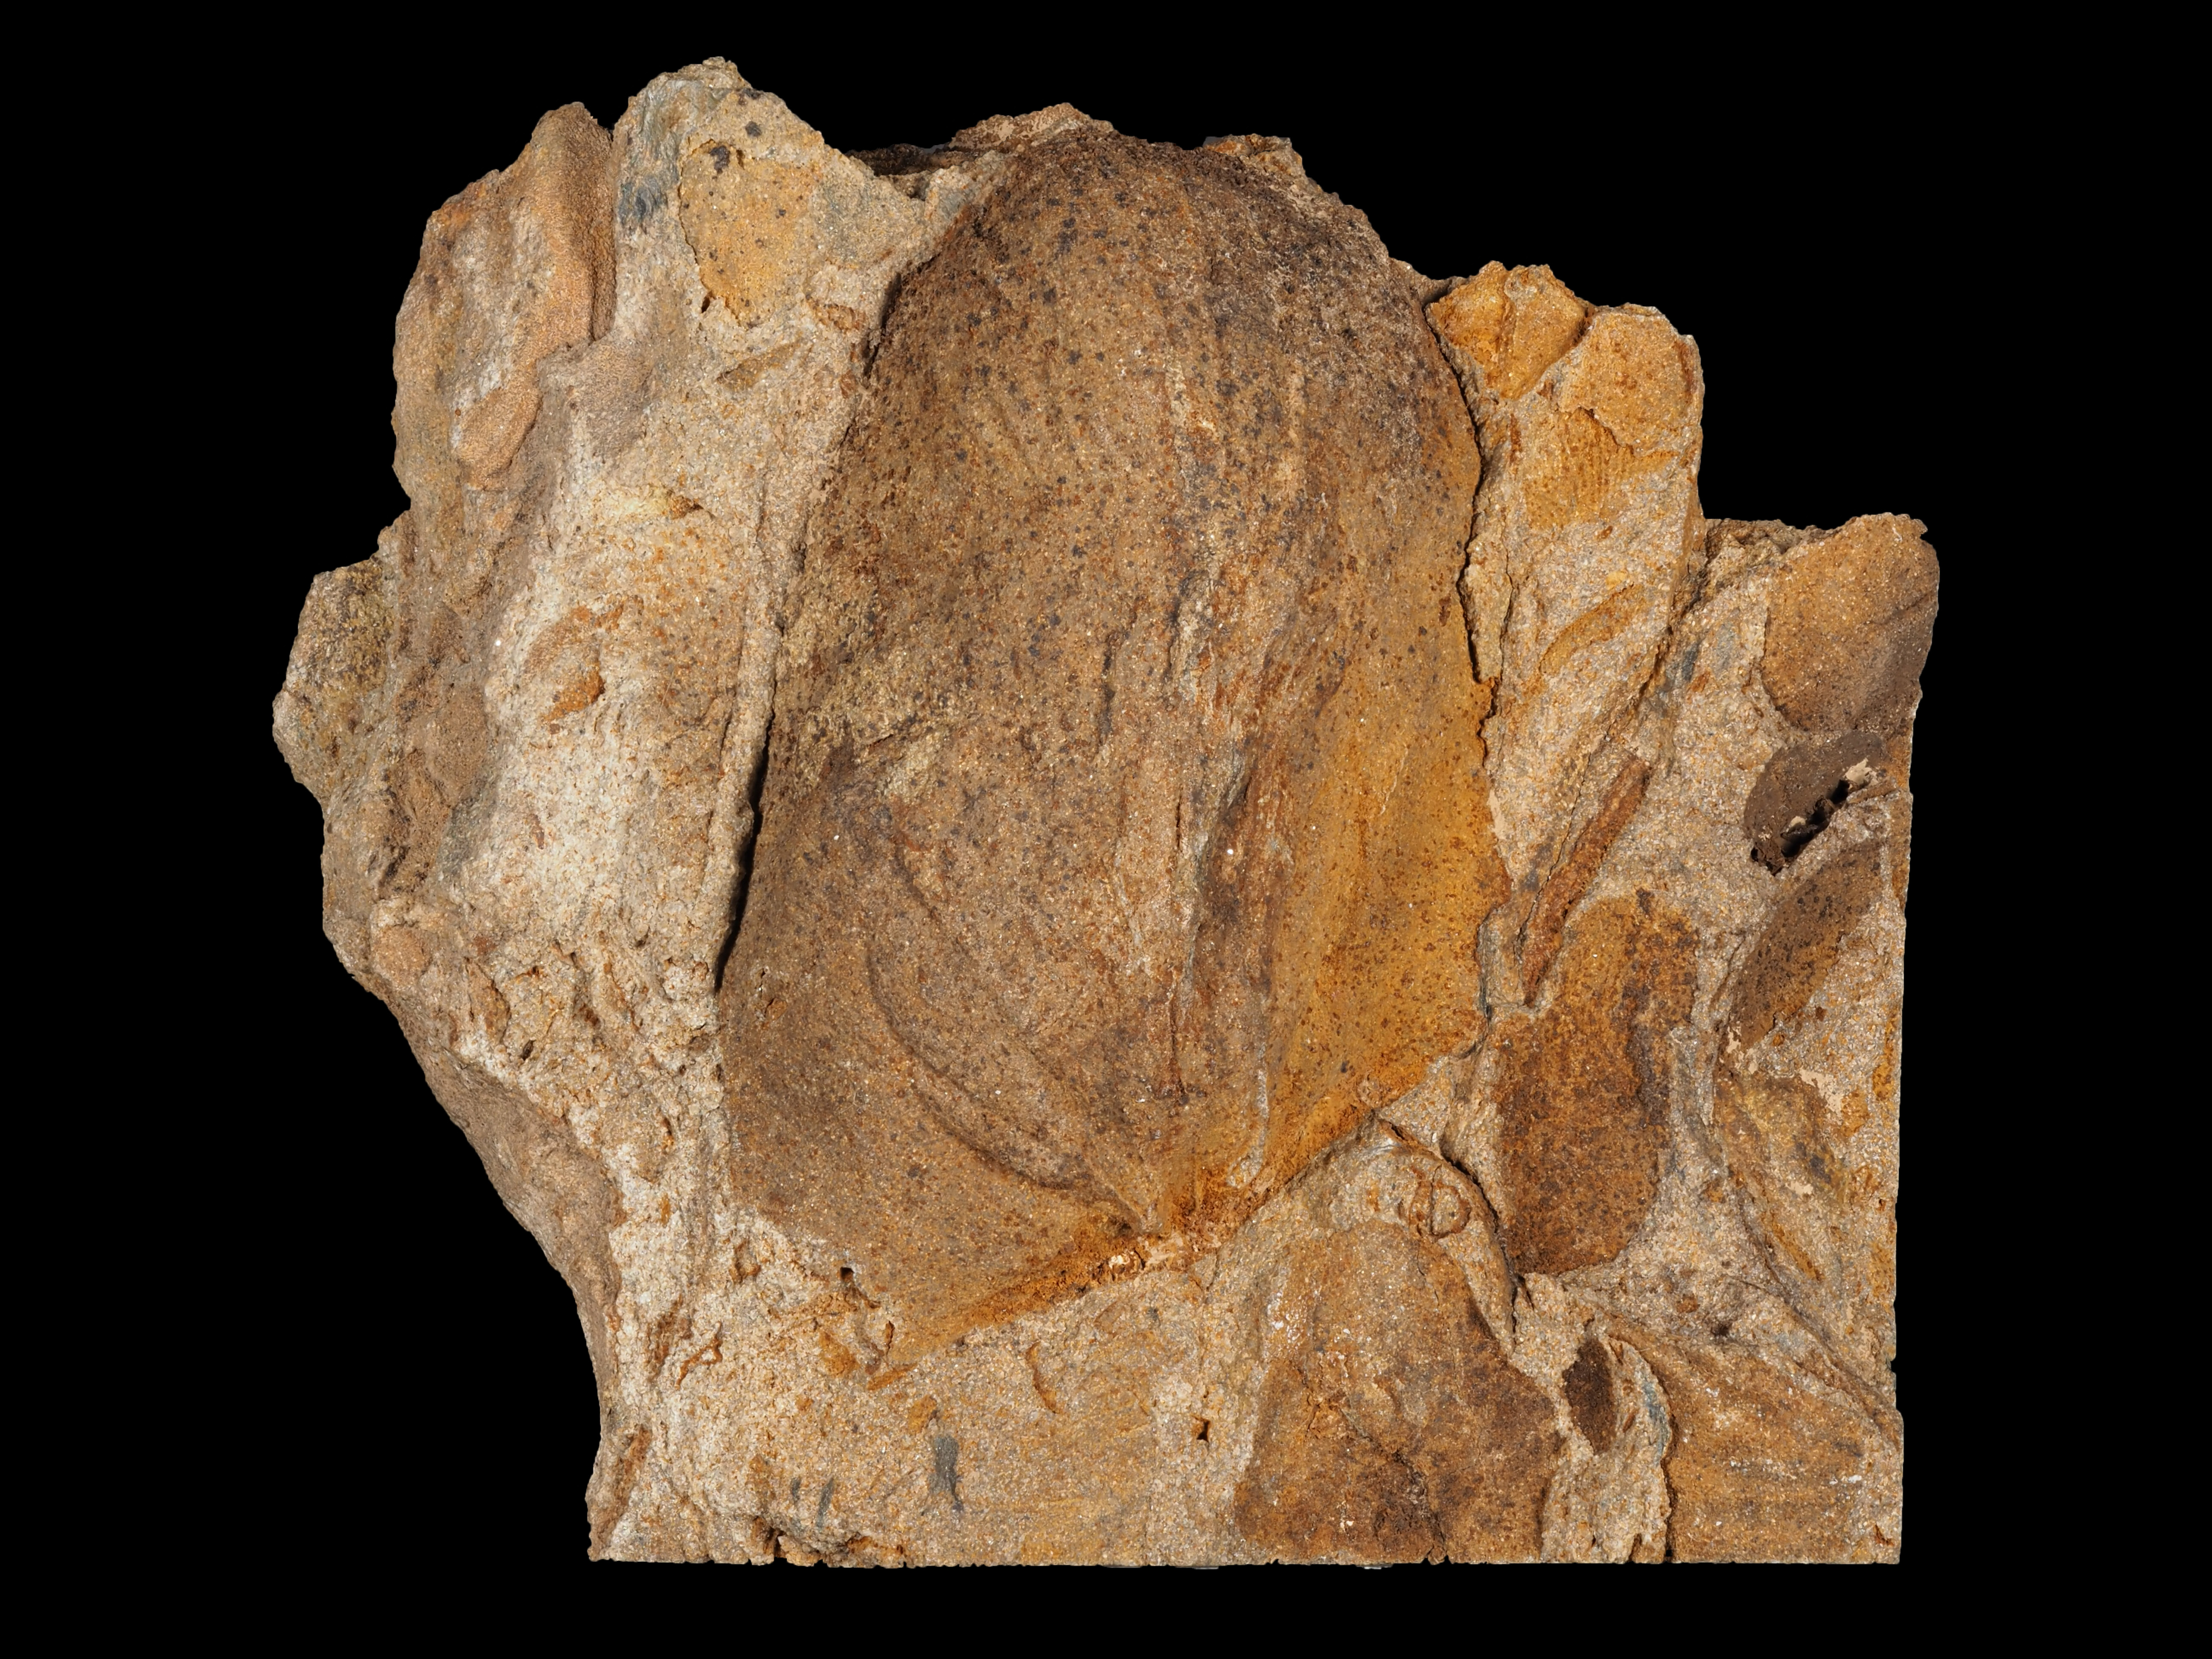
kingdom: Animalia
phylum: Brachiopoda
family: Stropheodontidae
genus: Strophodonta
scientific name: Strophodonta
